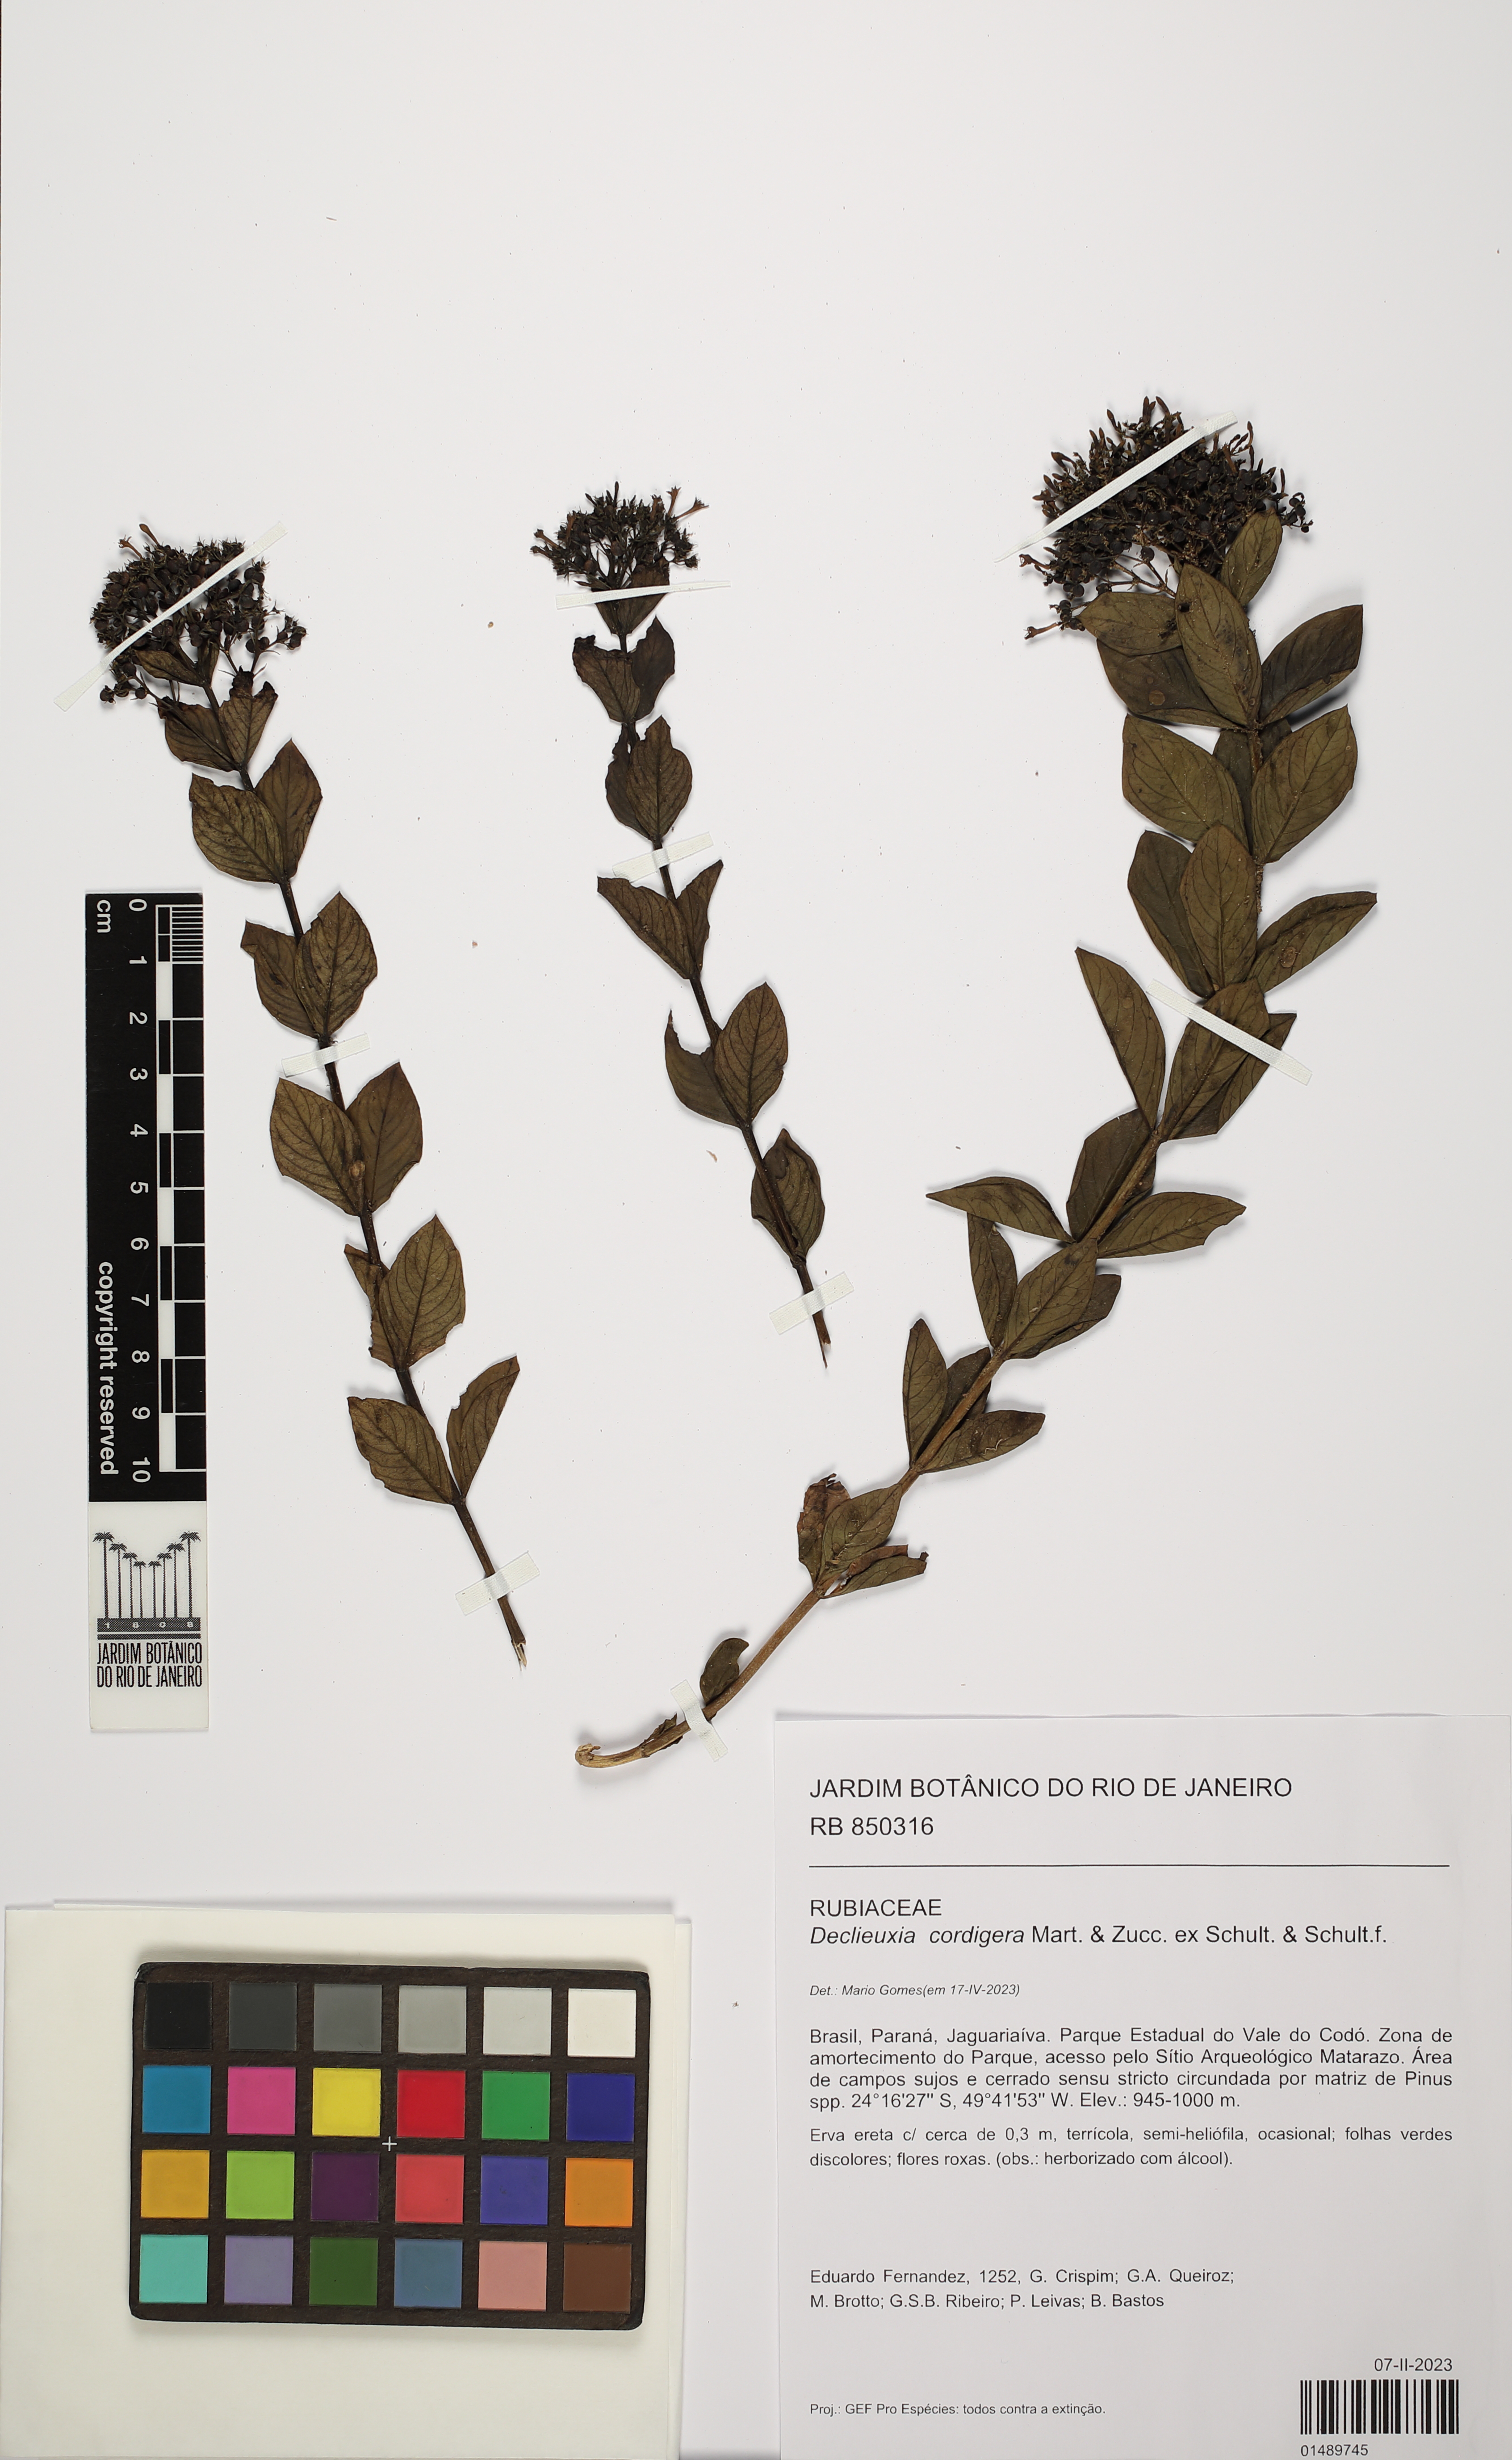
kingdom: Plantae
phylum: Tracheophyta
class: Magnoliopsida
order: Gentianales
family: Rubiaceae
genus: Declieuxia
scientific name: Declieuxia cordigera
